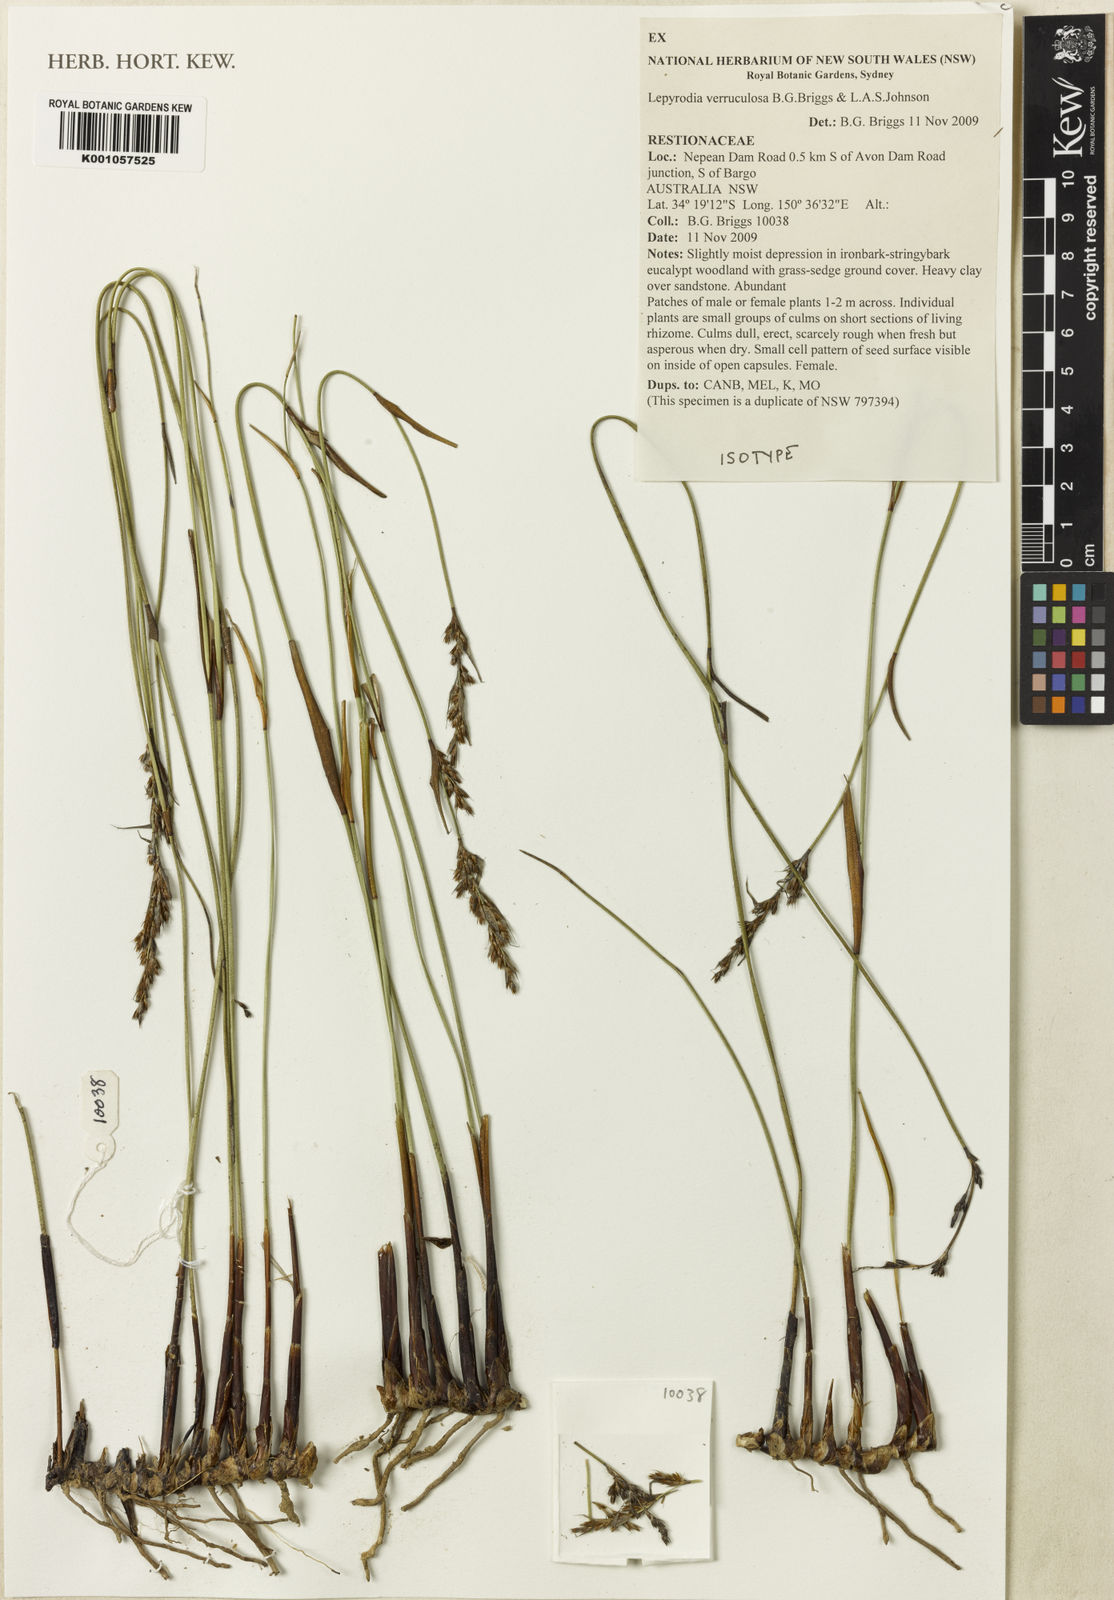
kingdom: Plantae
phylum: Tracheophyta
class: Liliopsida
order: Poales
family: Restionaceae
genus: Lepyrodia
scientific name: Lepyrodia verruculosa
